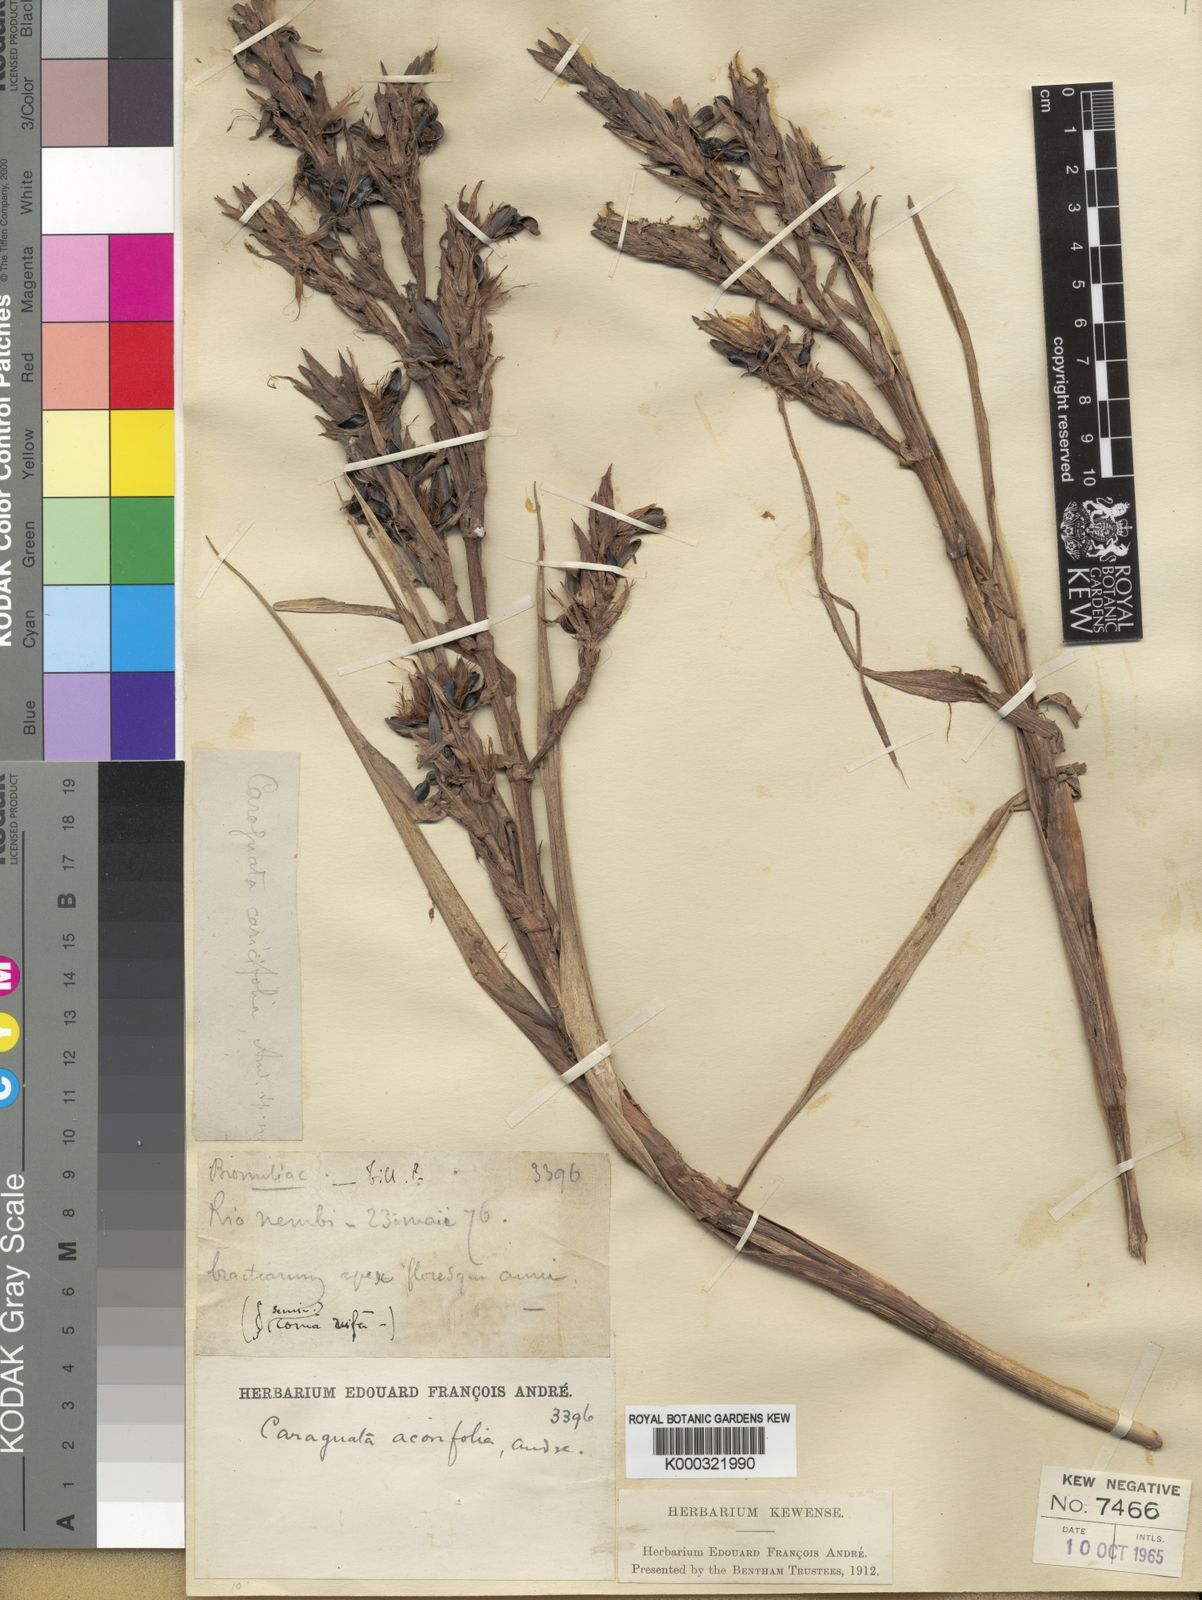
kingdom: Plantae
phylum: Tracheophyta
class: Liliopsida
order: Poales
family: Bromeliaceae
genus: Guzmania
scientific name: Guzmania calamifolia
